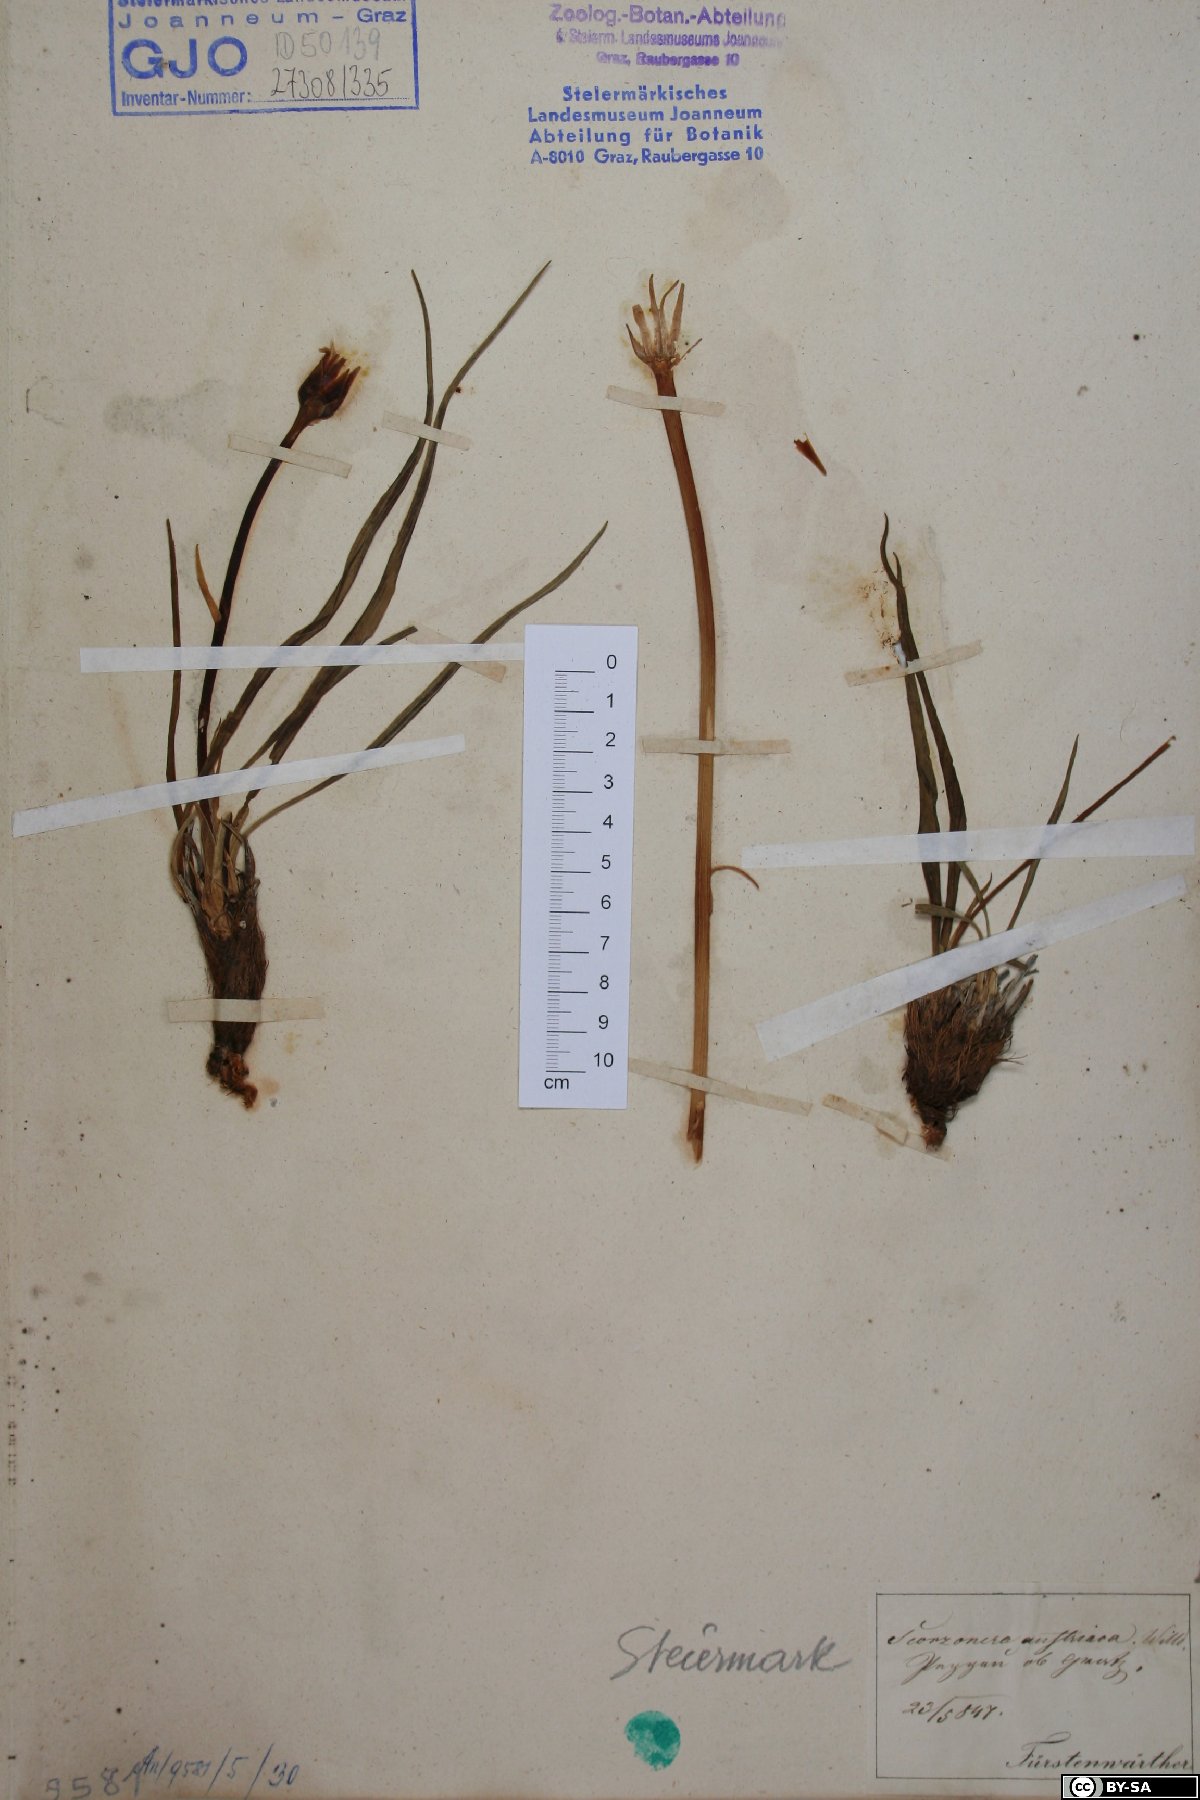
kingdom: Plantae
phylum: Tracheophyta
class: Magnoliopsida
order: Asterales
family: Asteraceae
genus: Takhtajaniantha
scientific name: Takhtajaniantha austriaca
